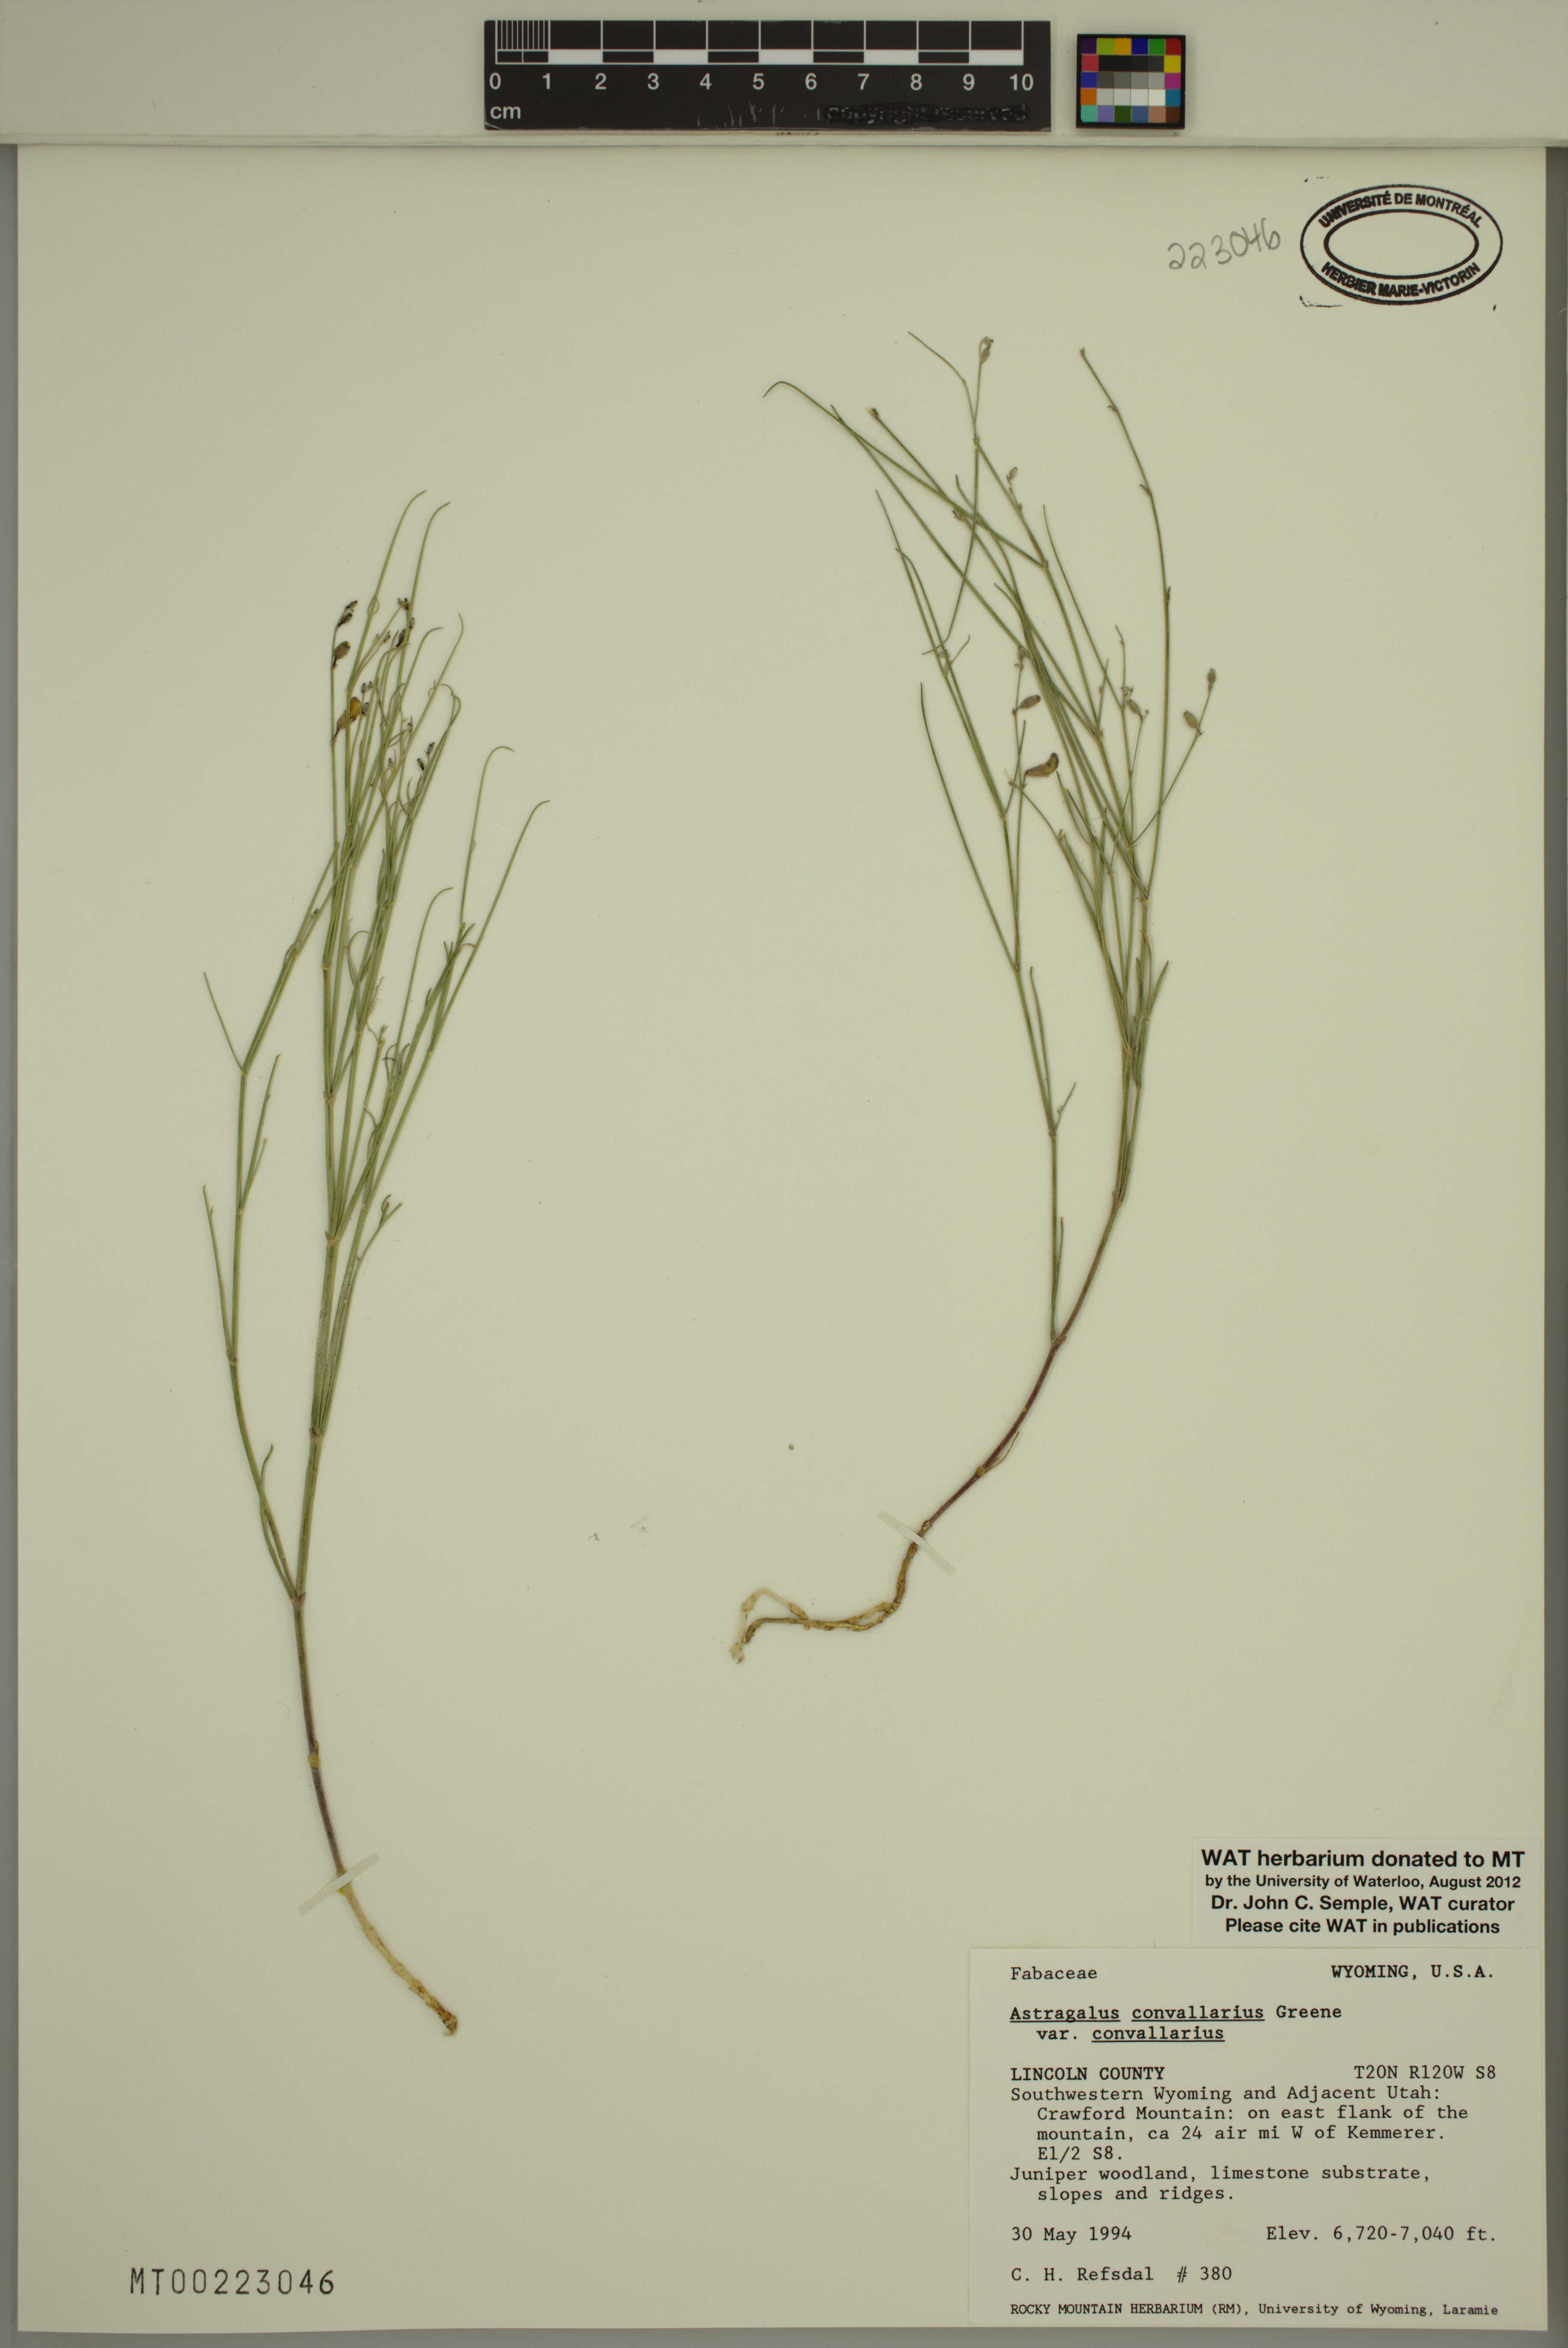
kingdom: Plantae
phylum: Tracheophyta
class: Magnoliopsida
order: Fabales
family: Fabaceae
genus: Astragalus
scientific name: Astragalus convallarius
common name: Lesser rushy milk-vetch
